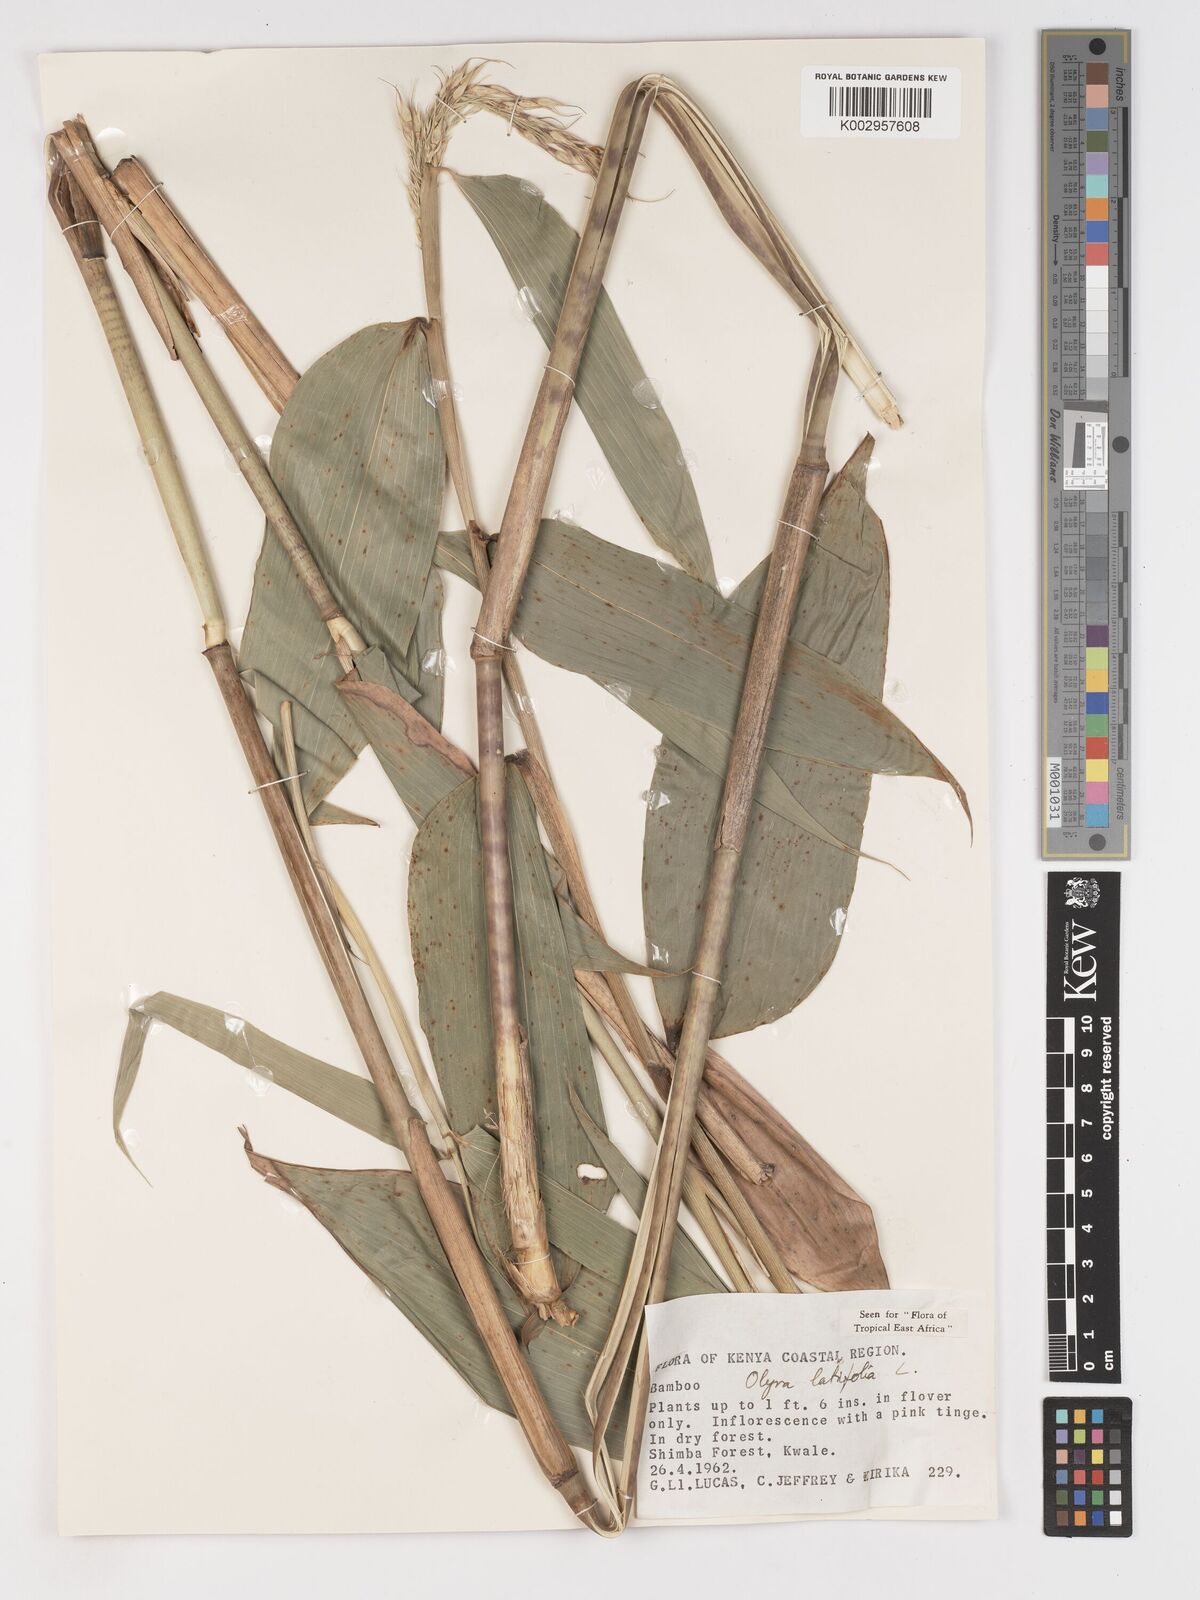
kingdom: Plantae
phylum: Tracheophyta
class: Liliopsida
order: Poales
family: Poaceae
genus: Olyra
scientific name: Olyra latifolia
